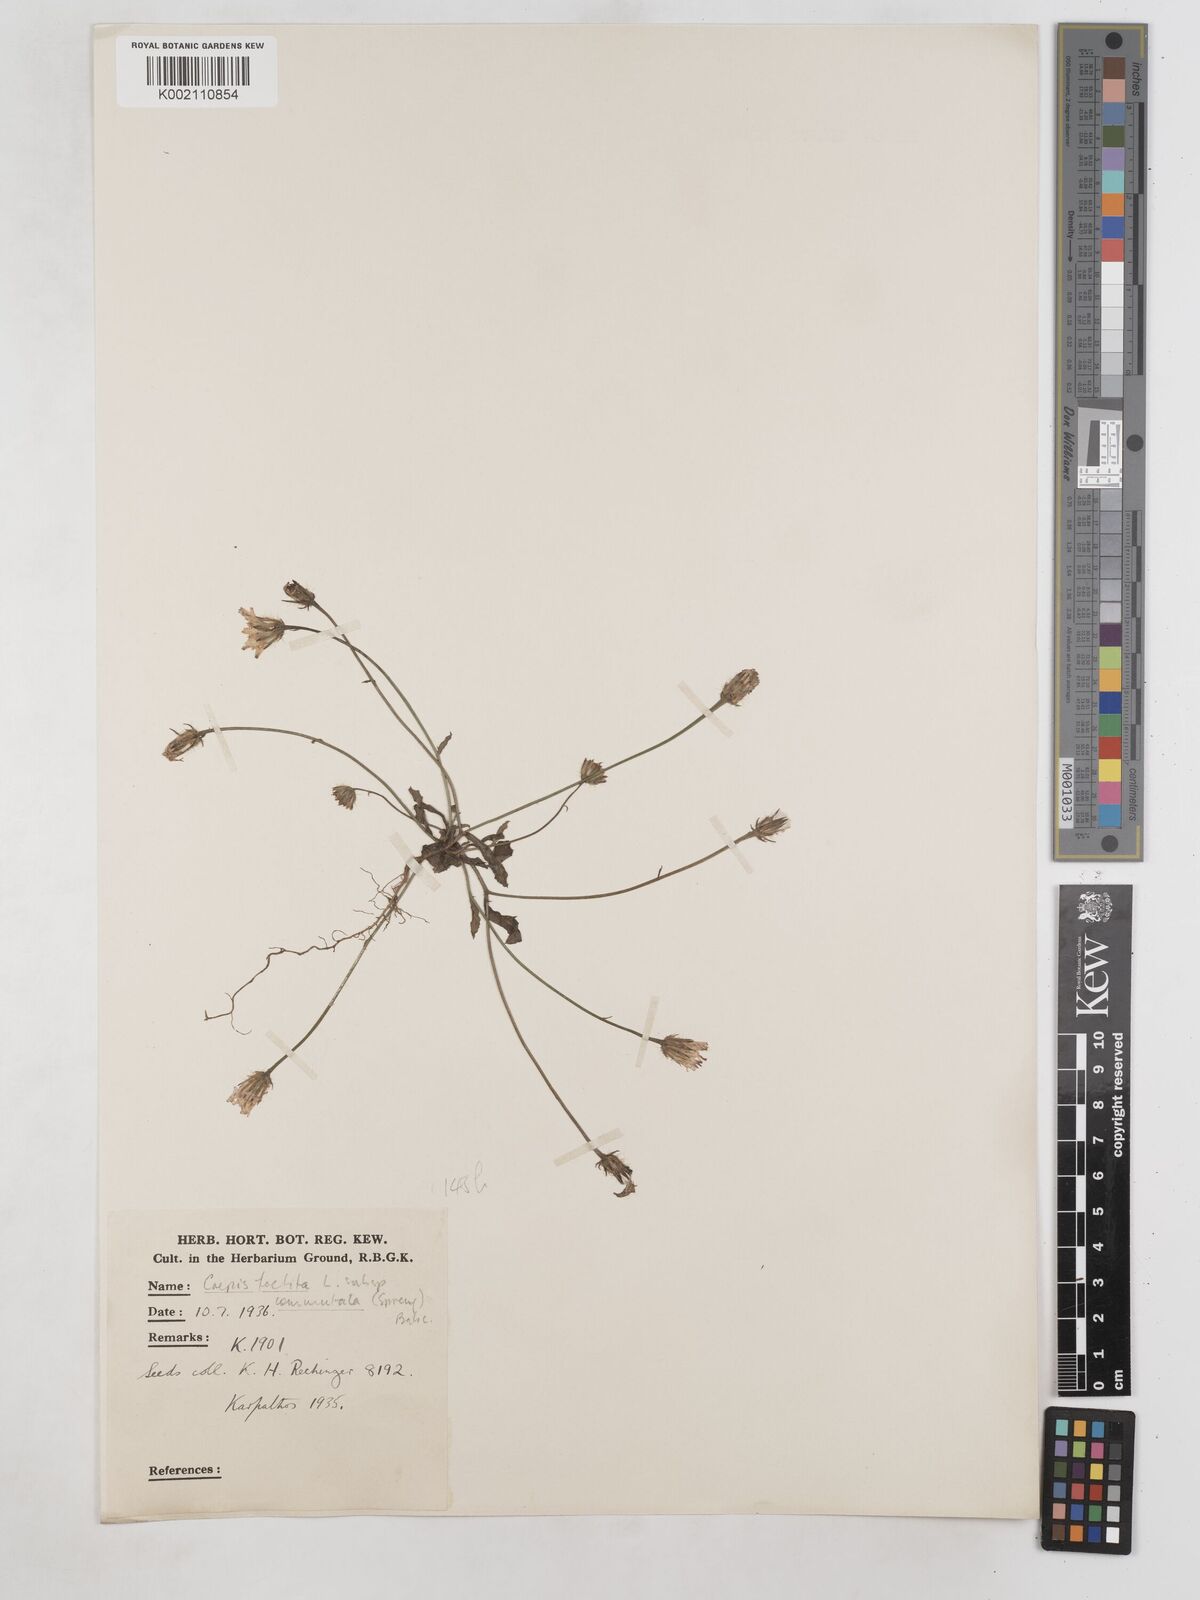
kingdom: Plantae
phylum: Tracheophyta
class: Magnoliopsida
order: Asterales
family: Asteraceae
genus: Crepis
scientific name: Crepis foetida
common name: Stinking hawk's-beard
